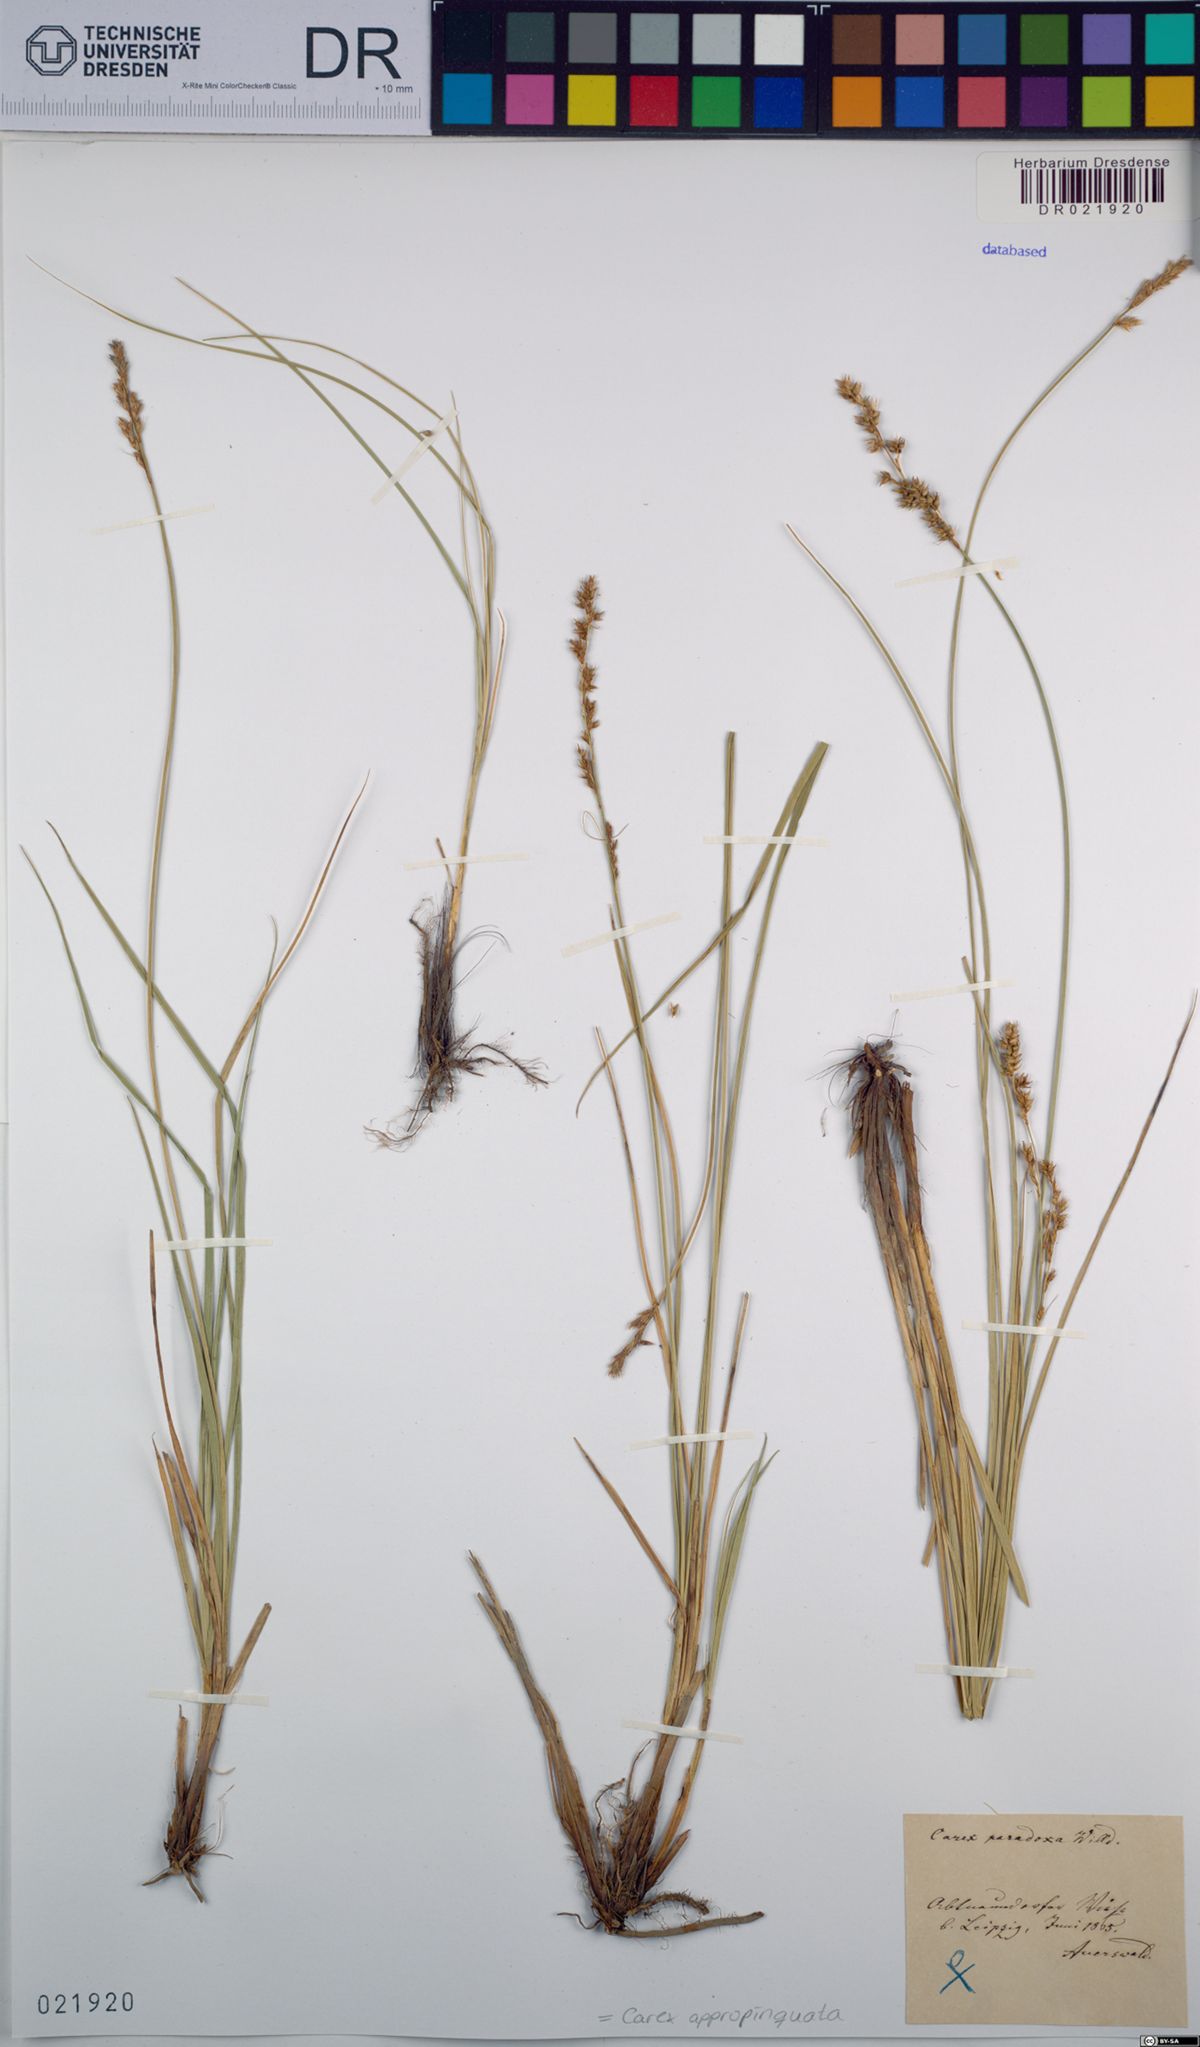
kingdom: Plantae
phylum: Tracheophyta
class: Liliopsida
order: Poales
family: Cyperaceae
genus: Carex
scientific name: Carex appropinquata
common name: Fibrous tussock-sedge
